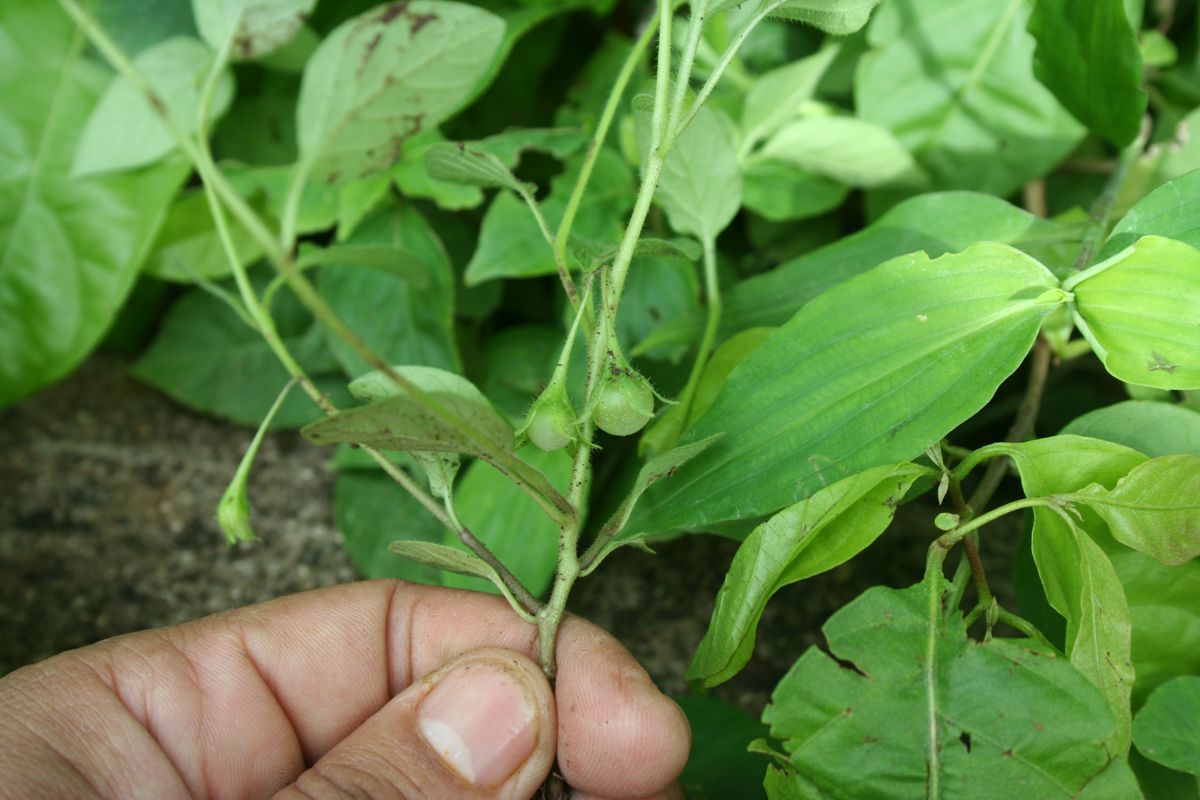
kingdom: Plantae
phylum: Tracheophyta
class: Magnoliopsida
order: Solanales
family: Solanaceae
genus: Solanum
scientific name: Solanum deflexum
